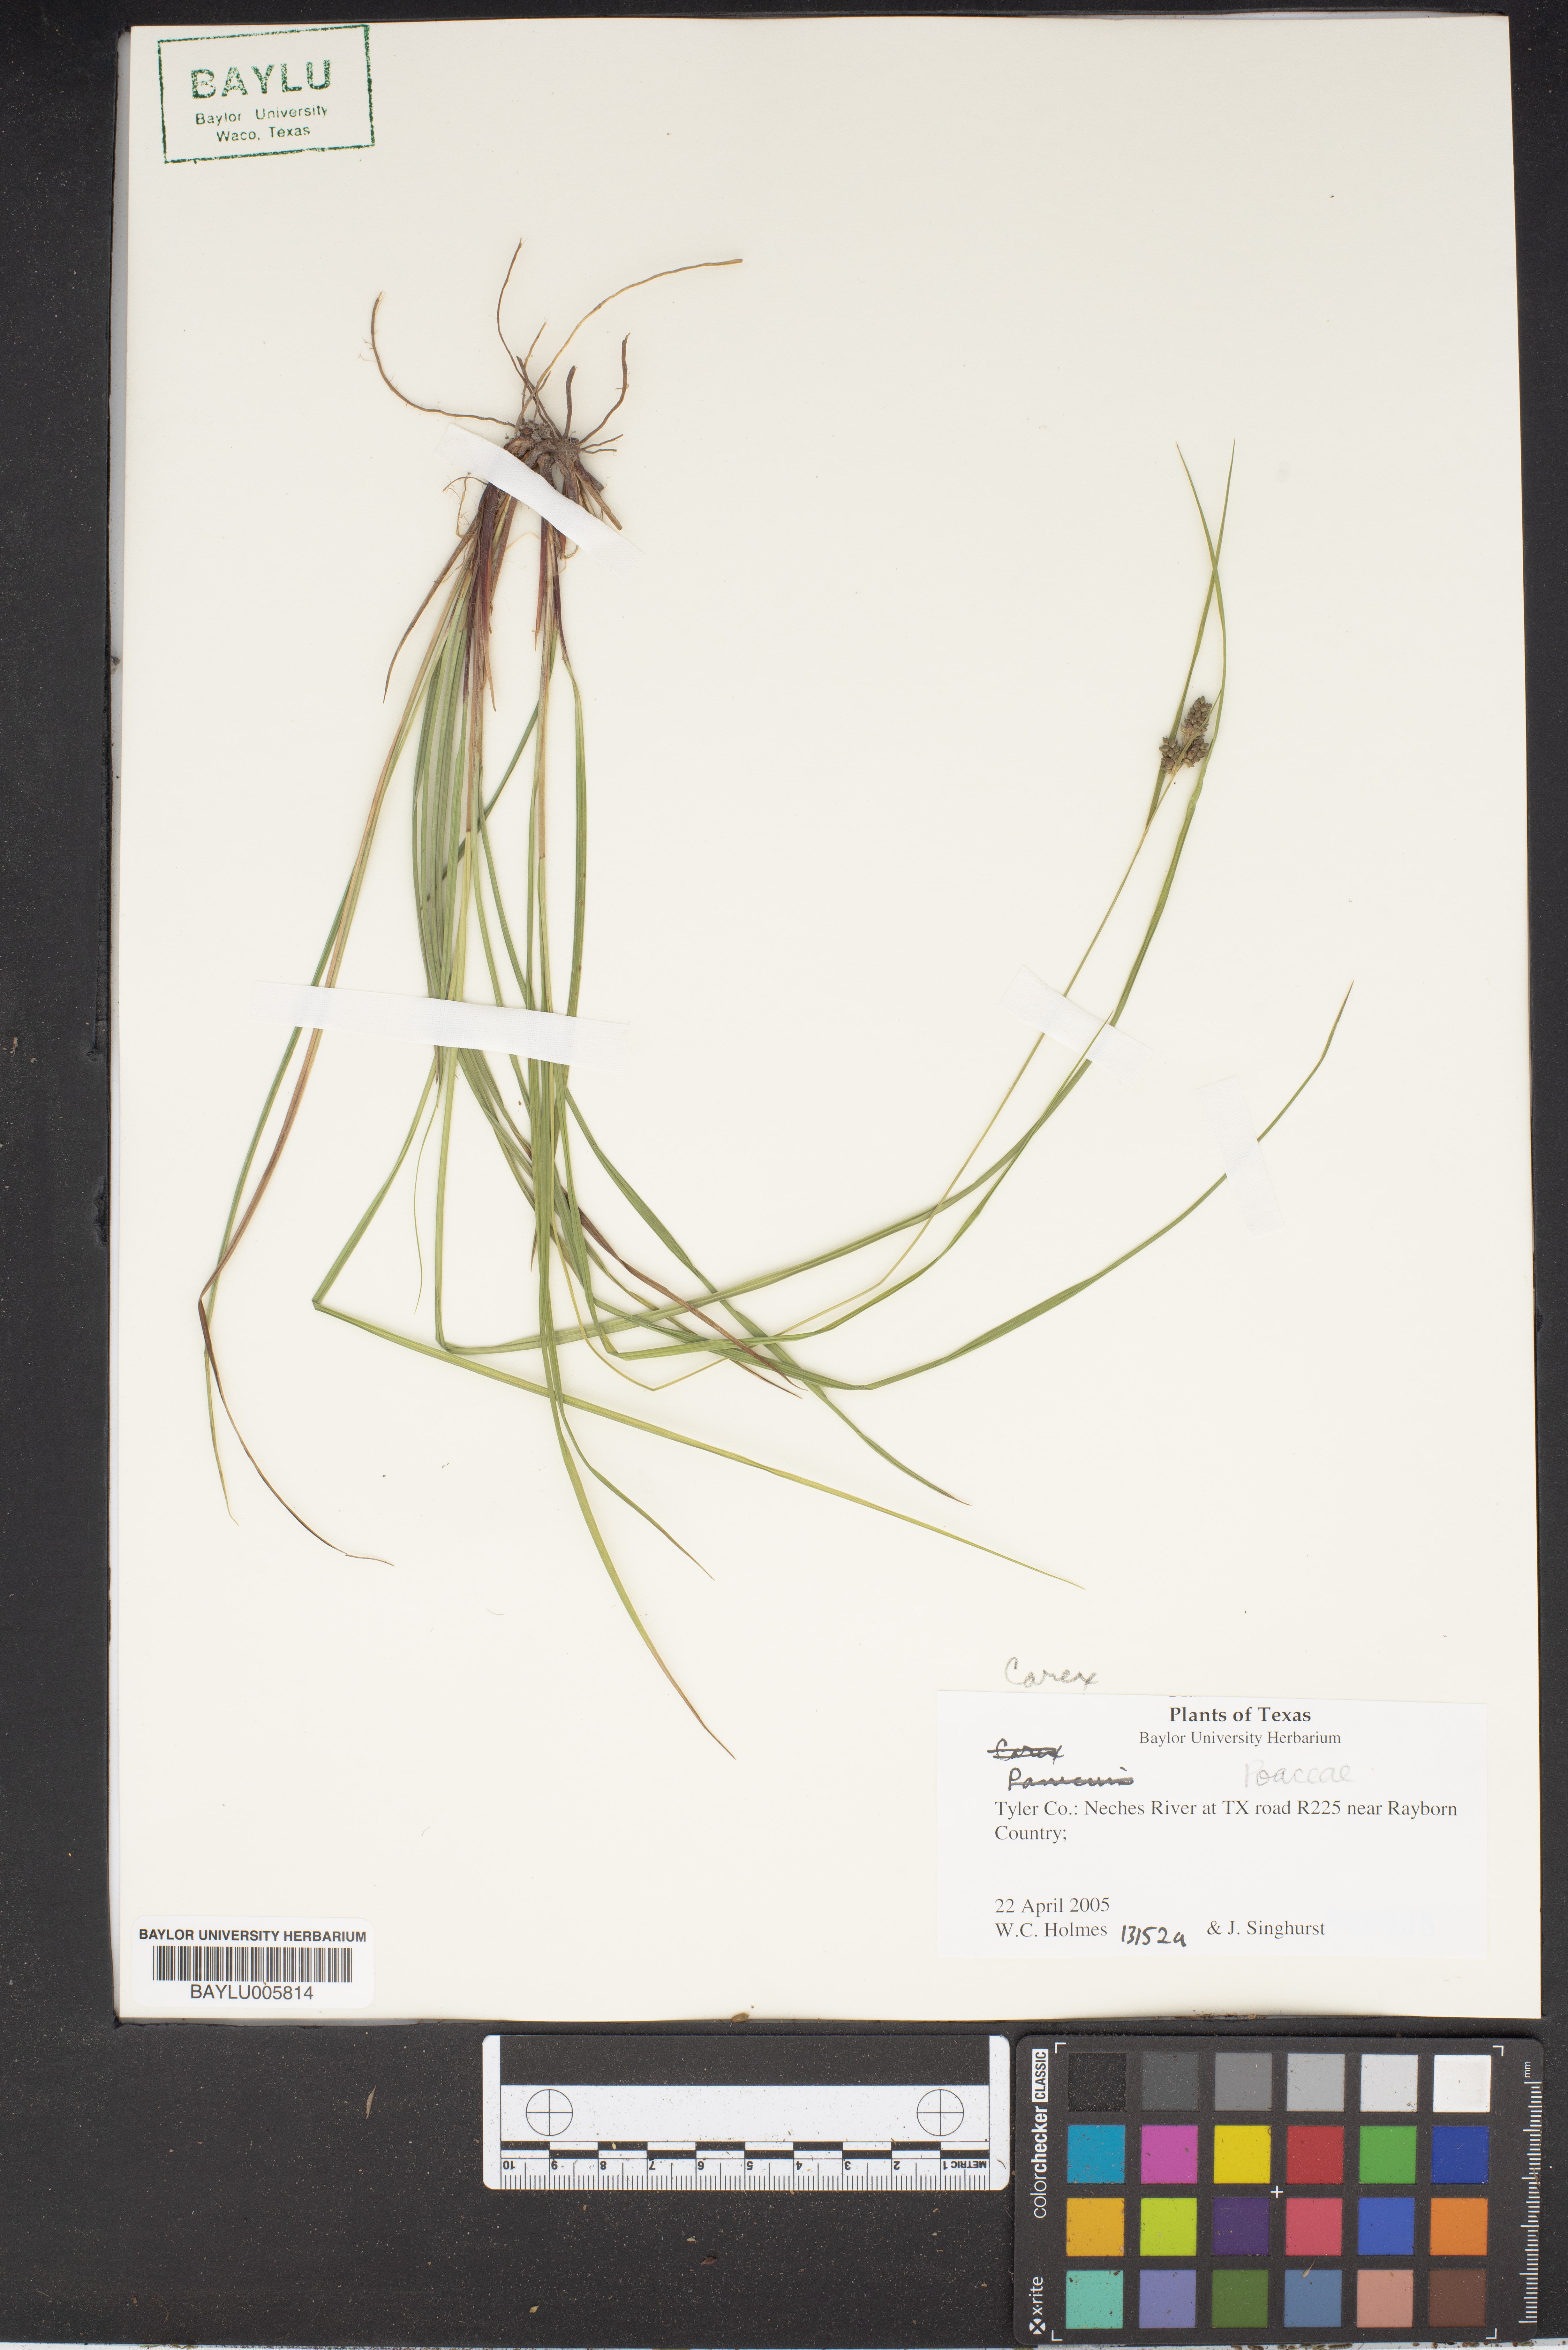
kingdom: Plantae
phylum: Tracheophyta
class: Liliopsida
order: Poales
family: Cyperaceae
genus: Carex
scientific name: Carex
